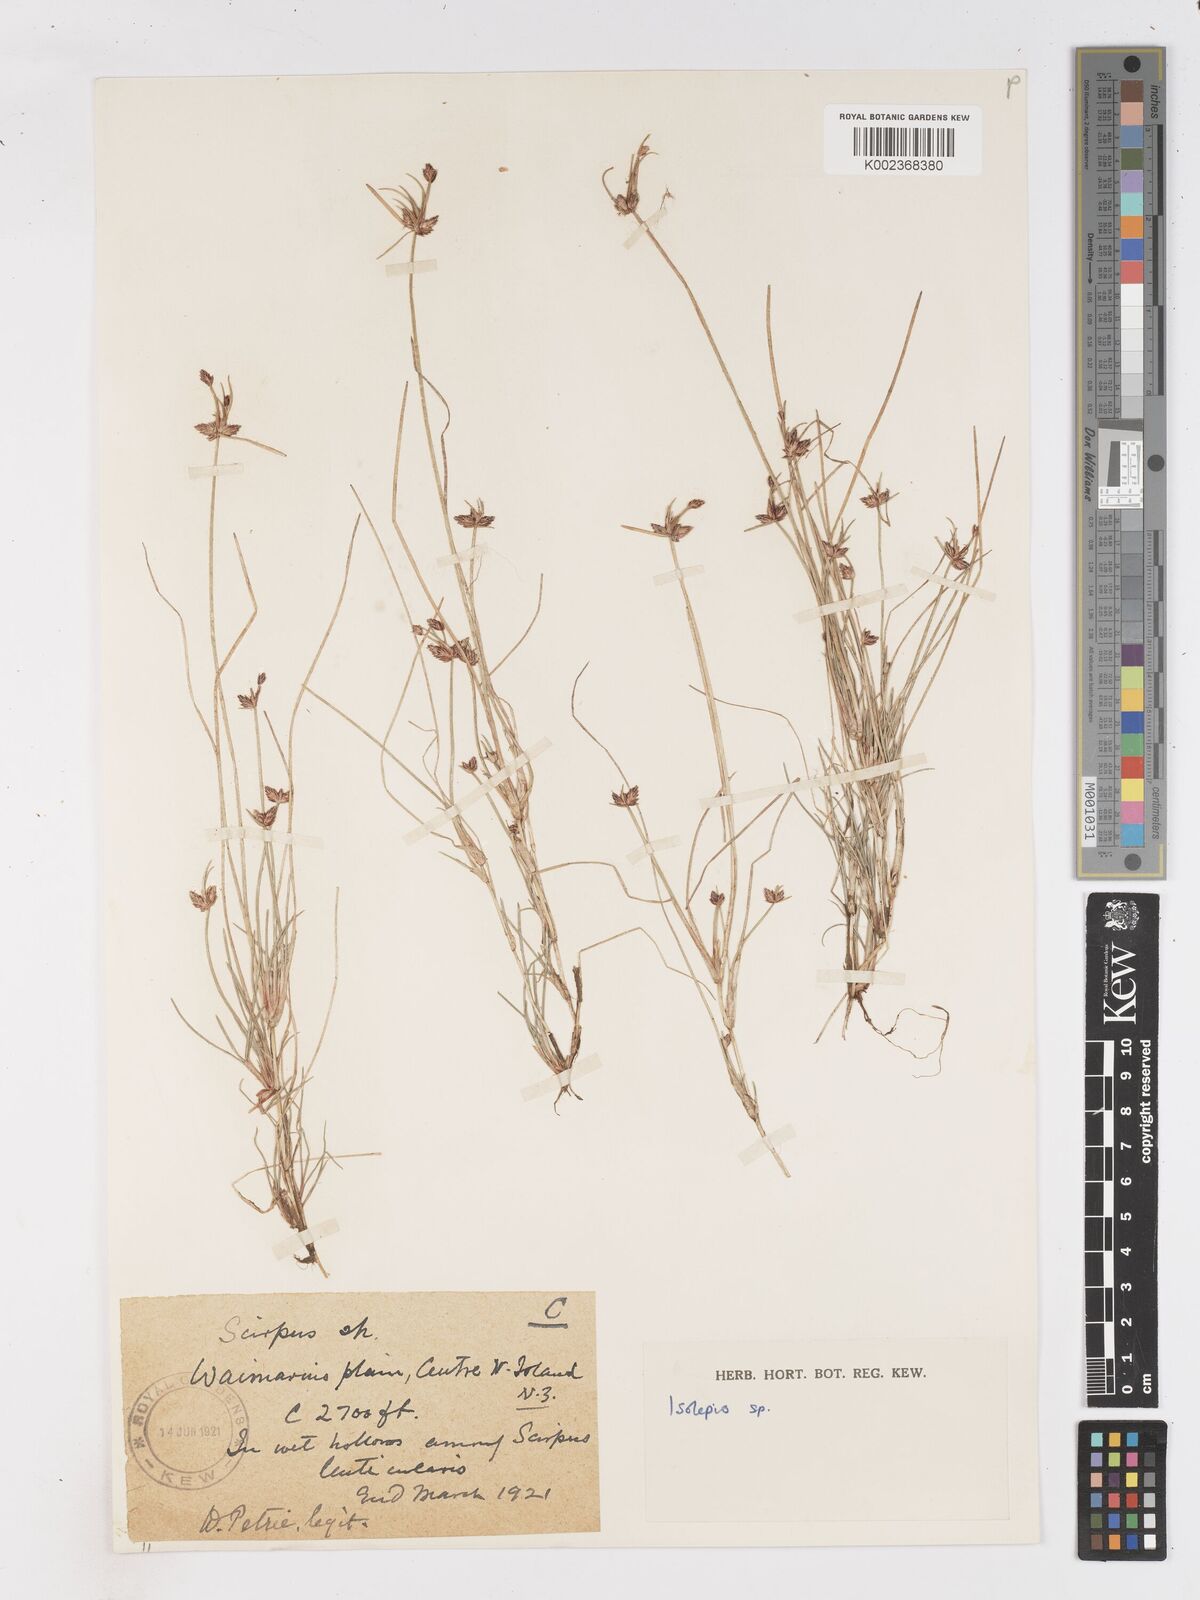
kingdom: Plantae
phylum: Tracheophyta
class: Liliopsida
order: Poales
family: Cyperaceae
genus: Isolepis
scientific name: Isolepis
